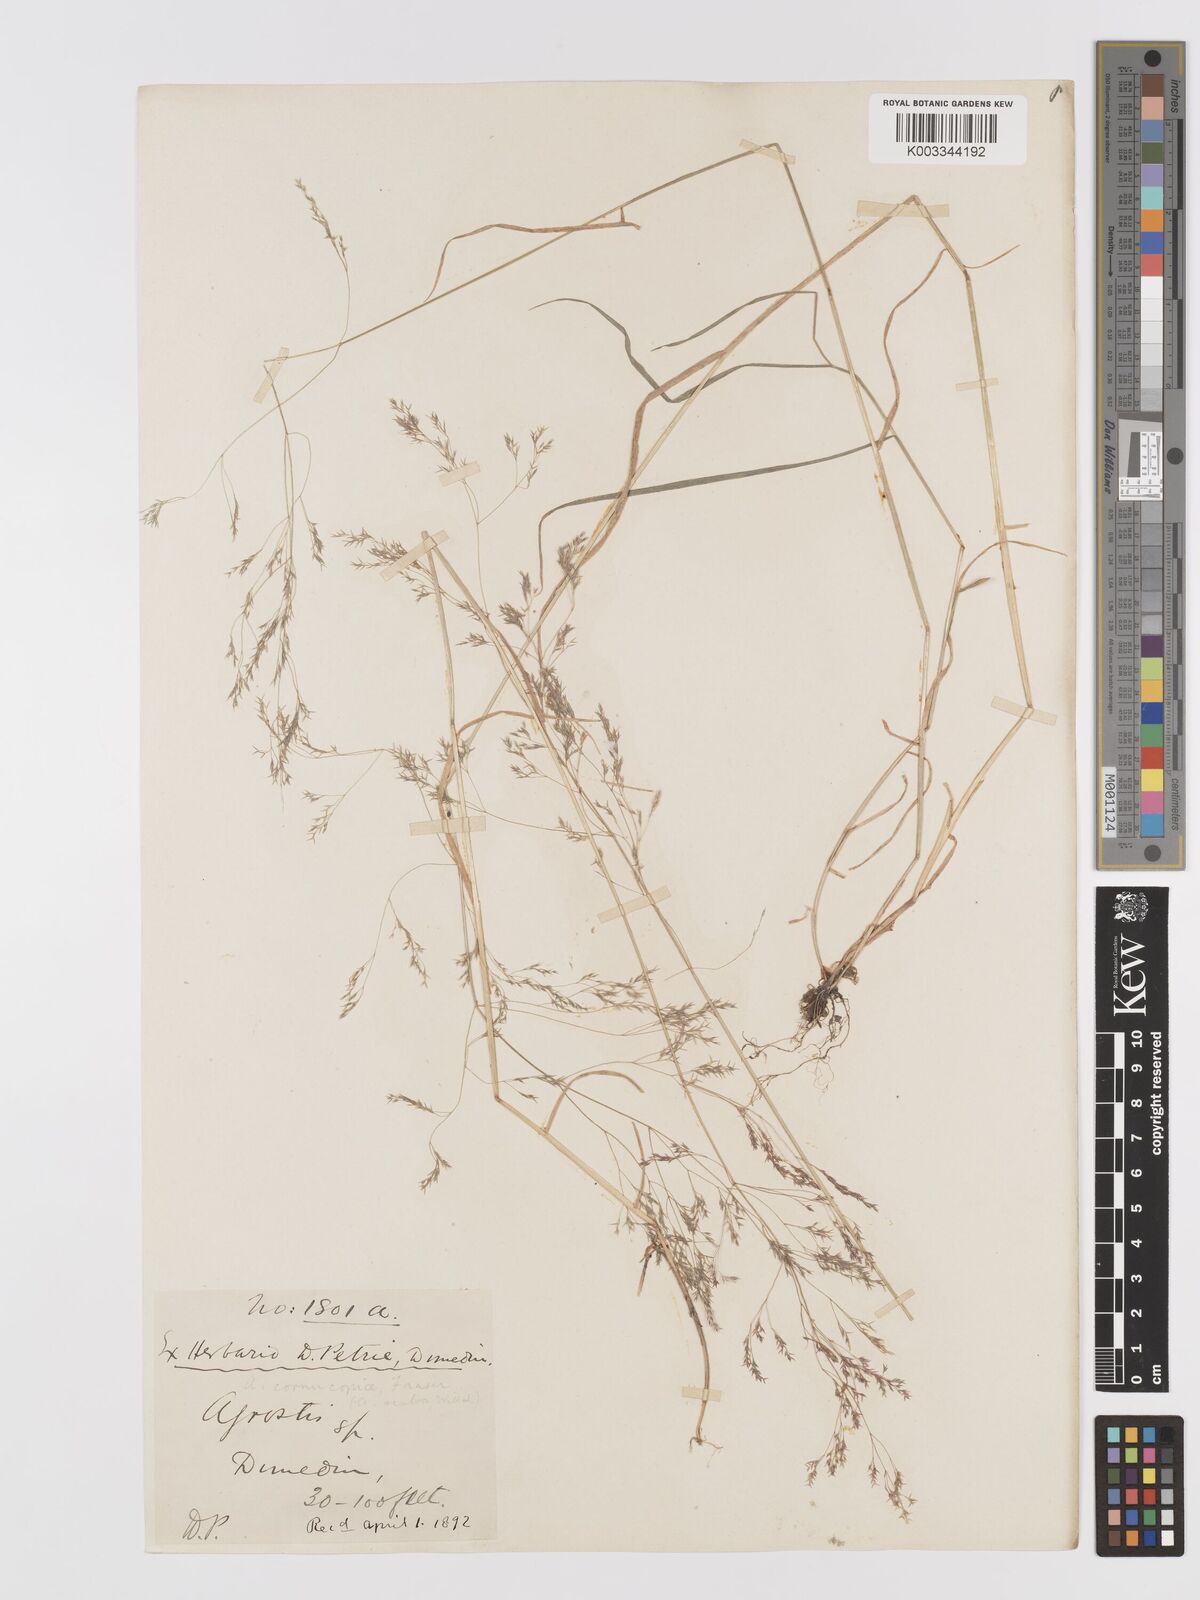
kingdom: Plantae
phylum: Tracheophyta
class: Liliopsida
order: Poales
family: Poaceae
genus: Agrostis
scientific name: Agrostis
